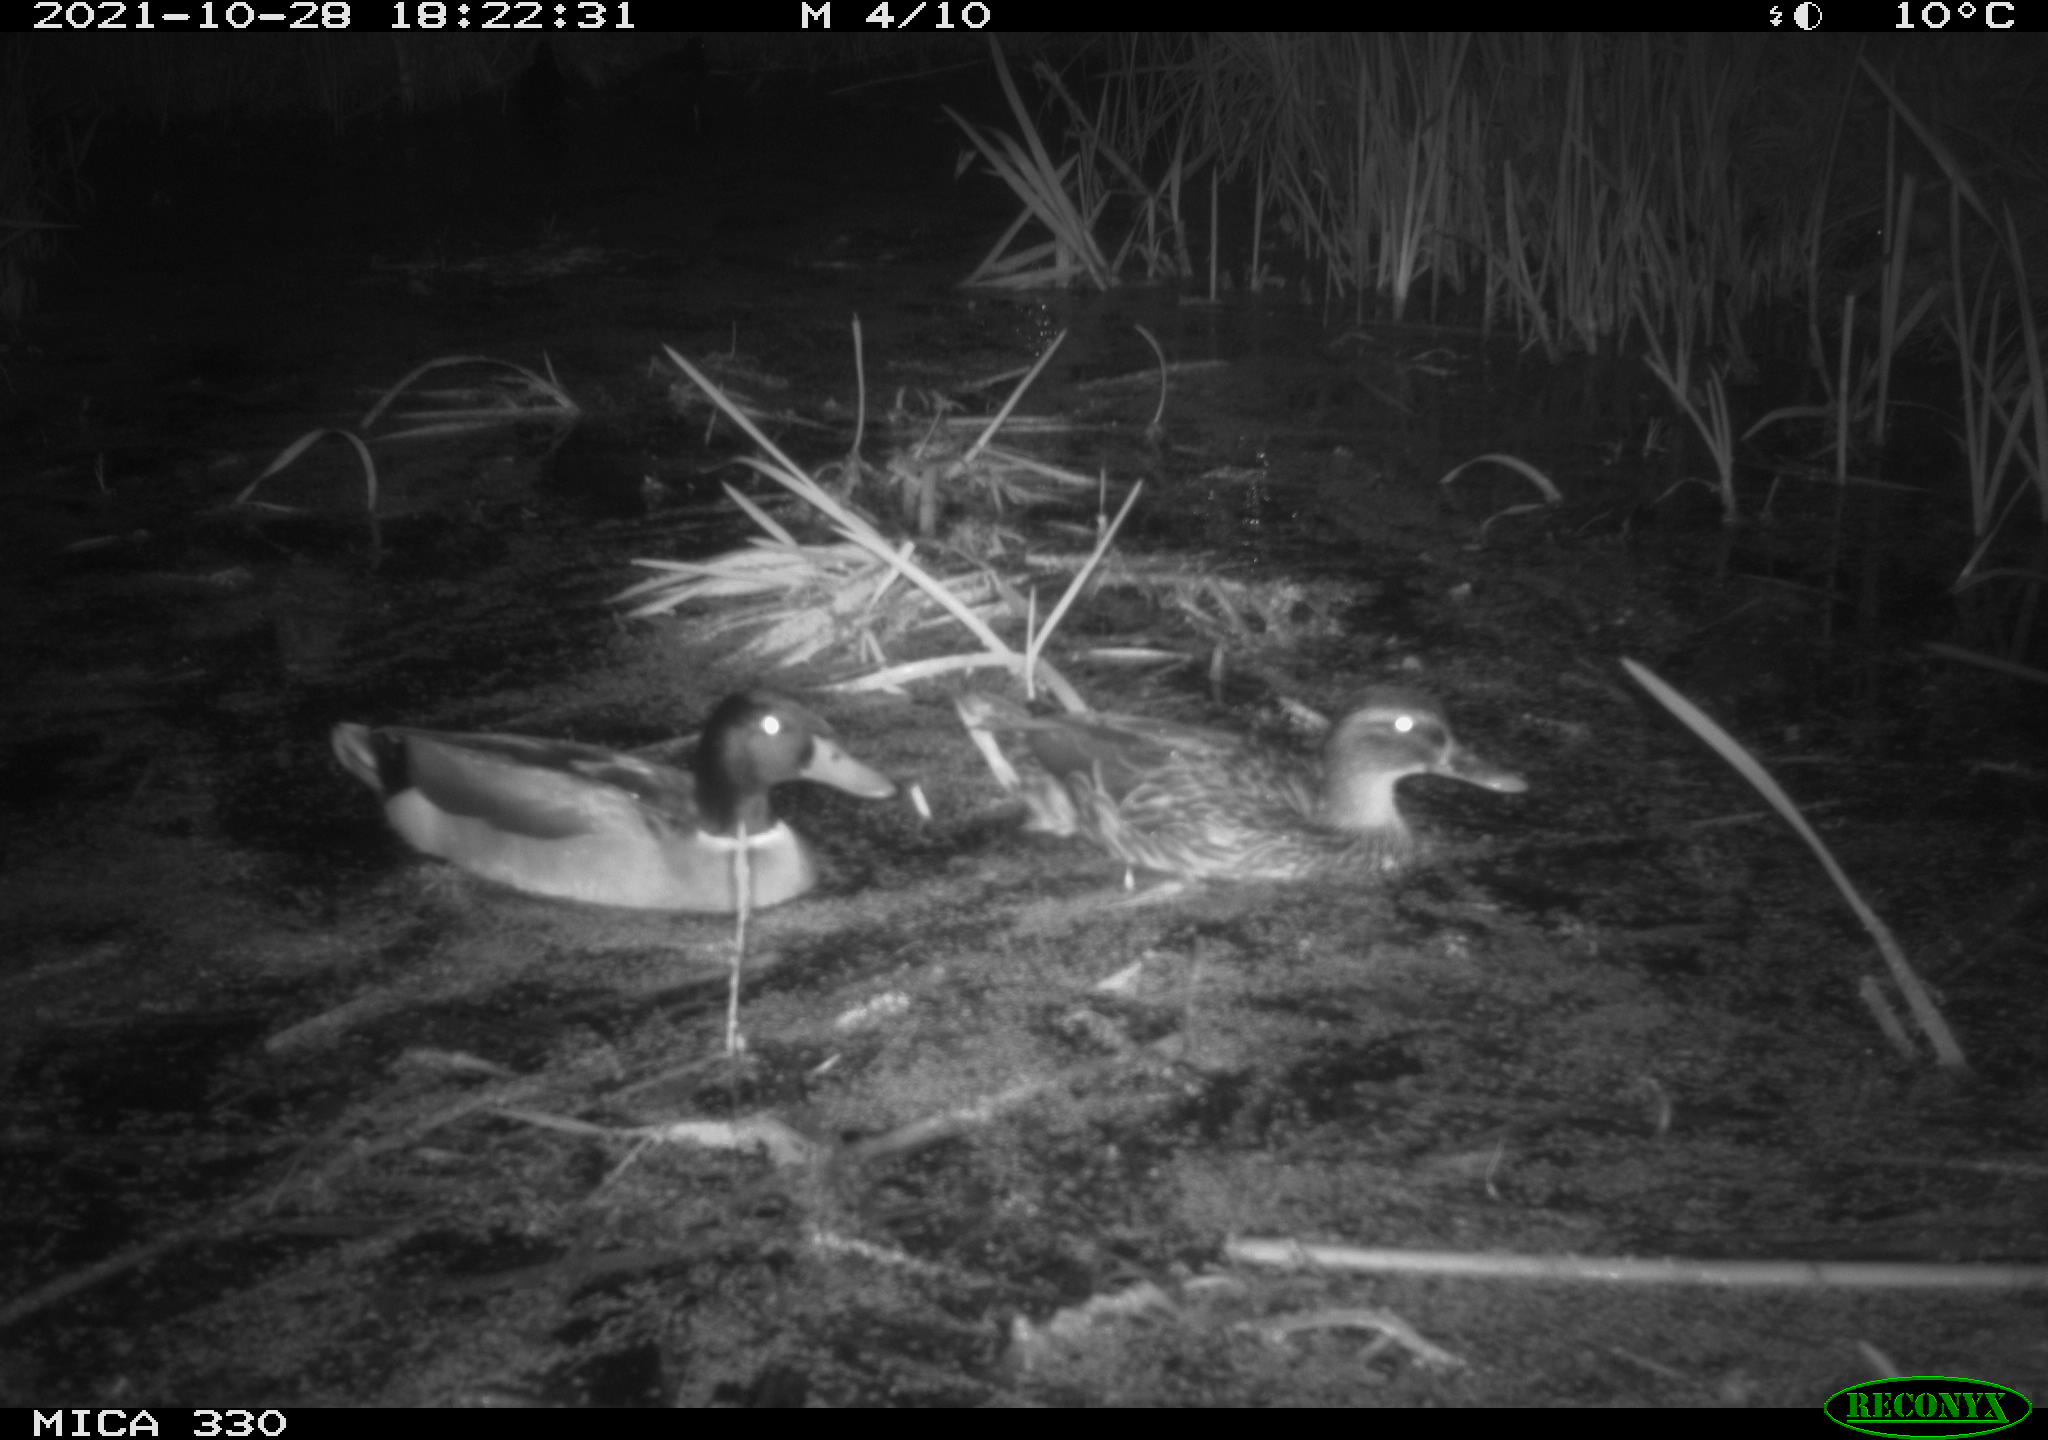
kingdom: Animalia
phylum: Chordata
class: Aves
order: Anseriformes
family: Anatidae
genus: Anas
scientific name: Anas platyrhynchos
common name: Mallard
